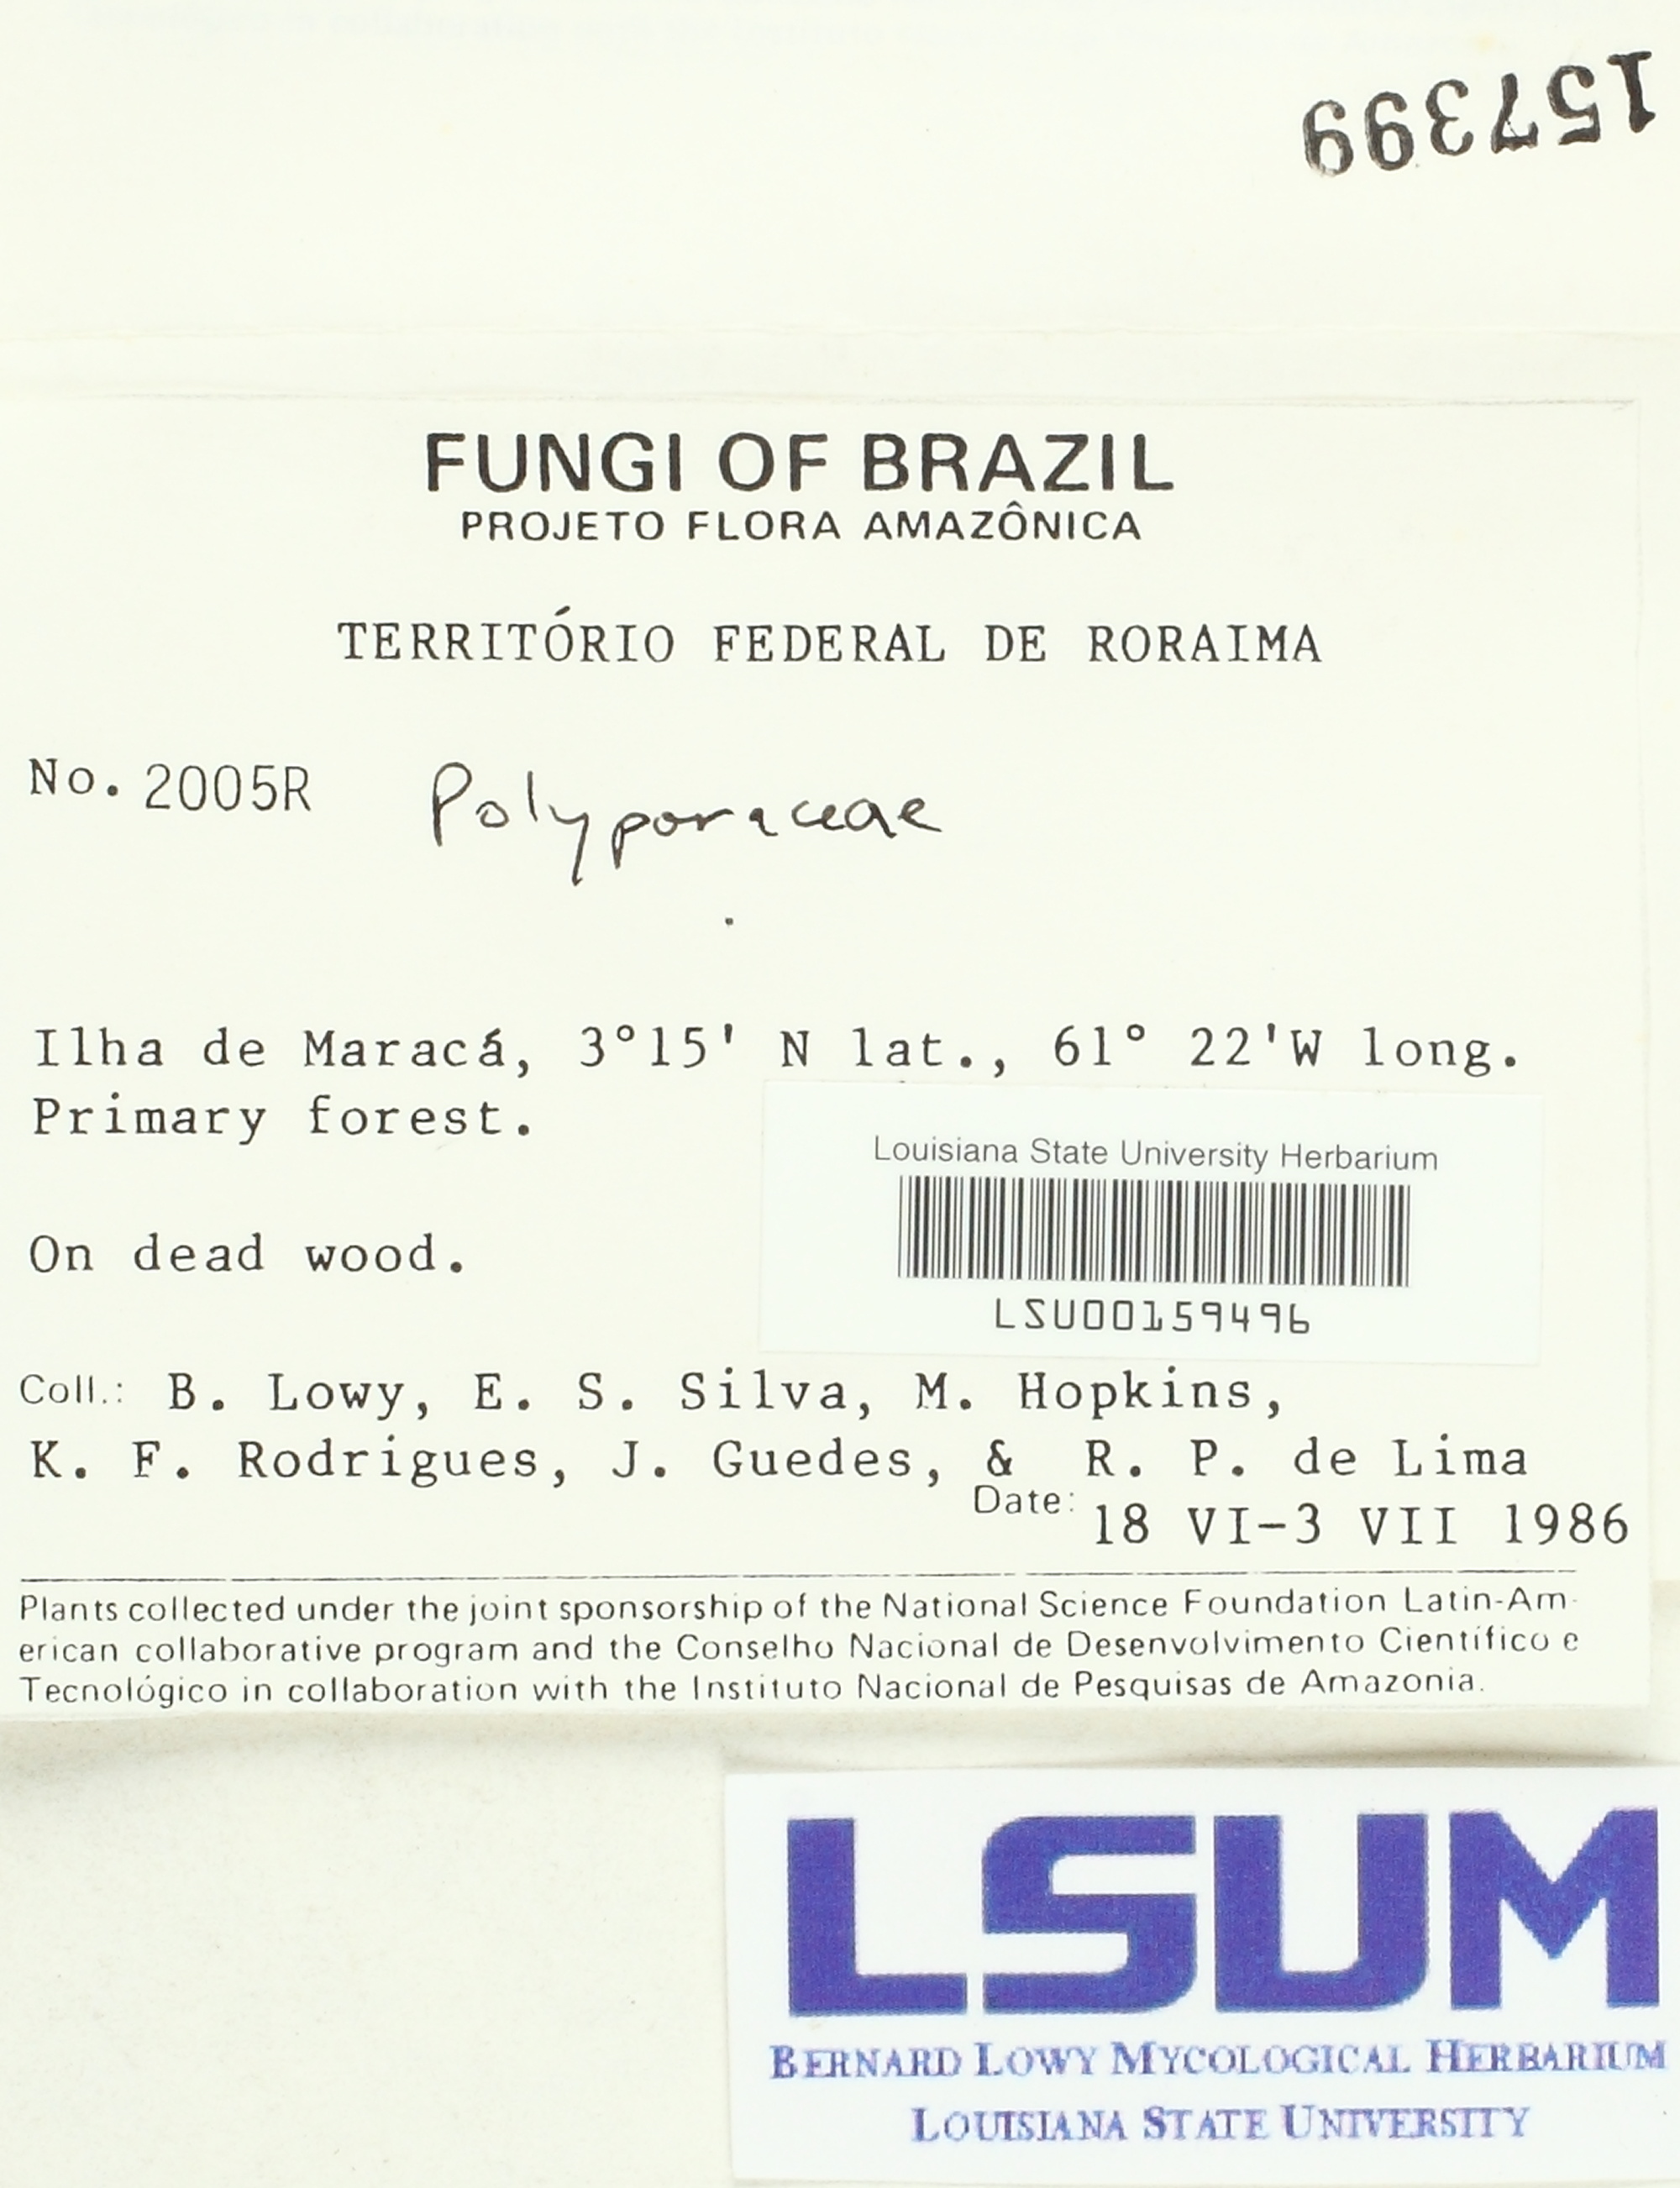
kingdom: Fungi
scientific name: Fungi
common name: Fungi
